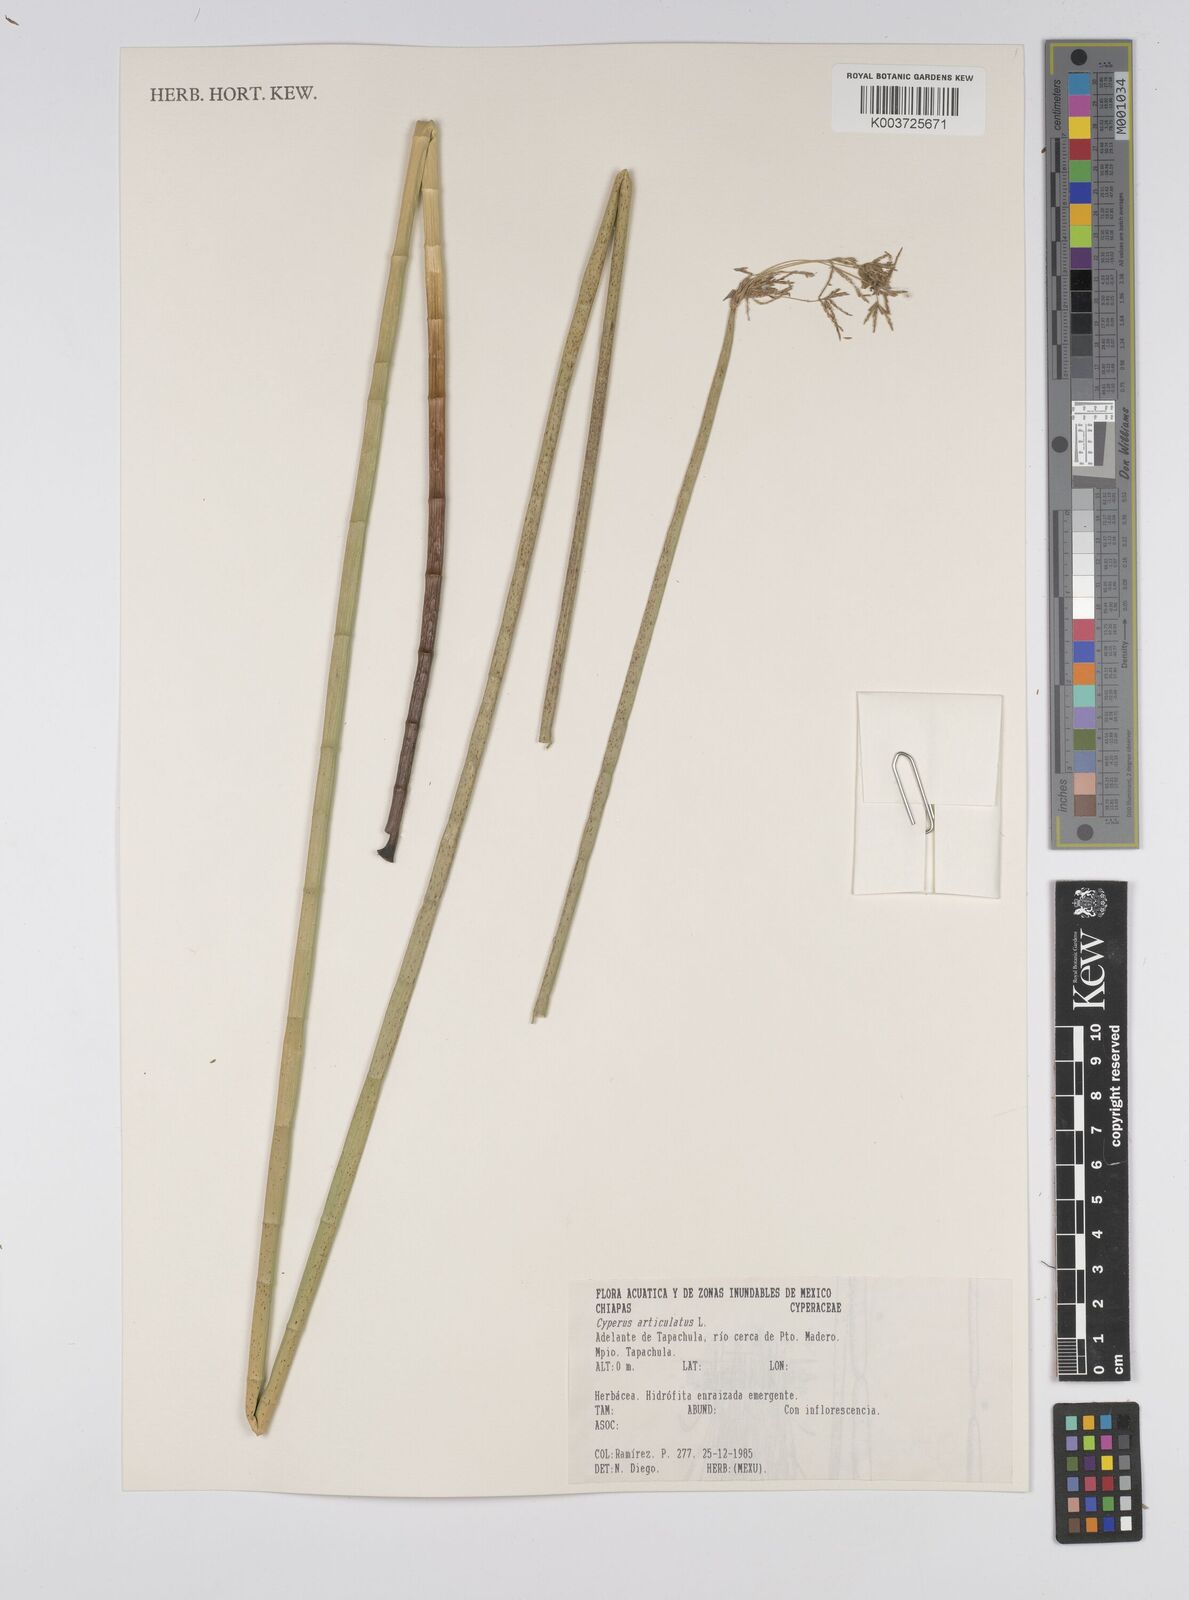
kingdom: Plantae
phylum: Tracheophyta
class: Liliopsida
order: Poales
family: Cyperaceae
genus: Cyperus
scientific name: Cyperus articulatus
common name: Jointed flatsedge
